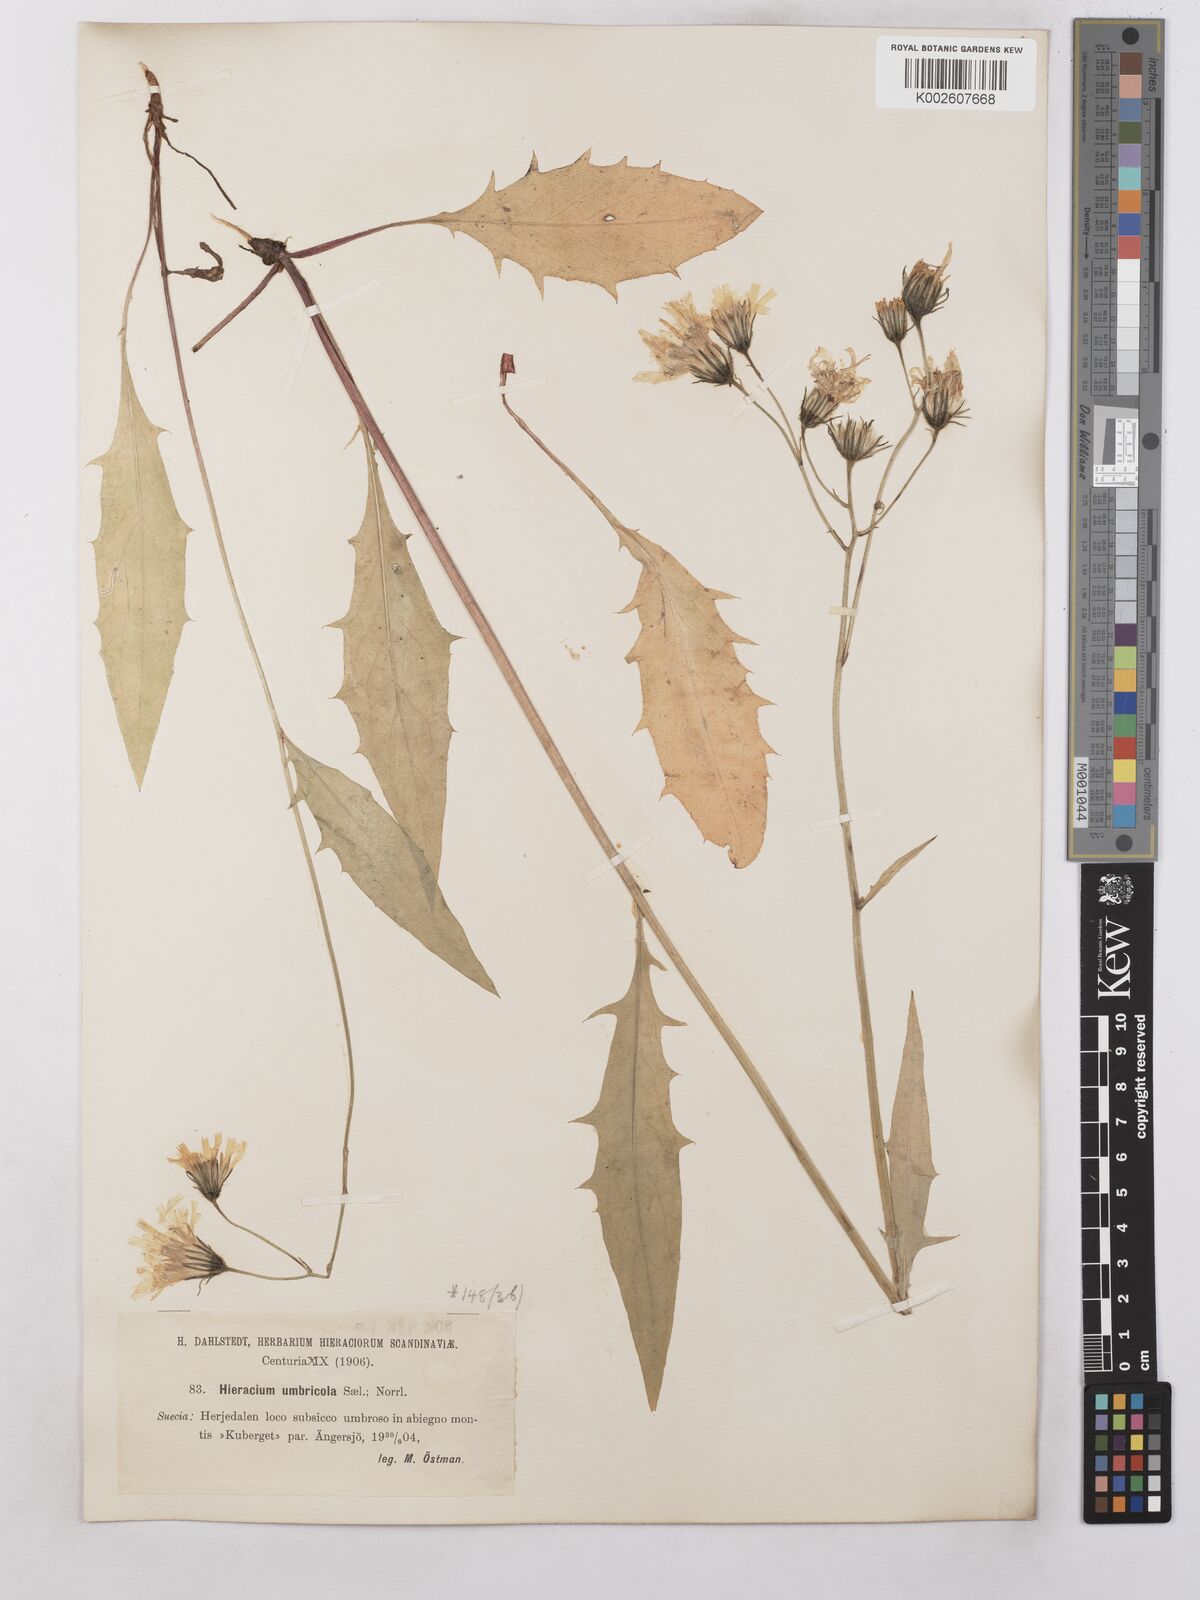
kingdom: Plantae
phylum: Tracheophyta
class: Magnoliopsida
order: Asterales
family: Asteraceae
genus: Hieracium
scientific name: Hieracium subramosum
